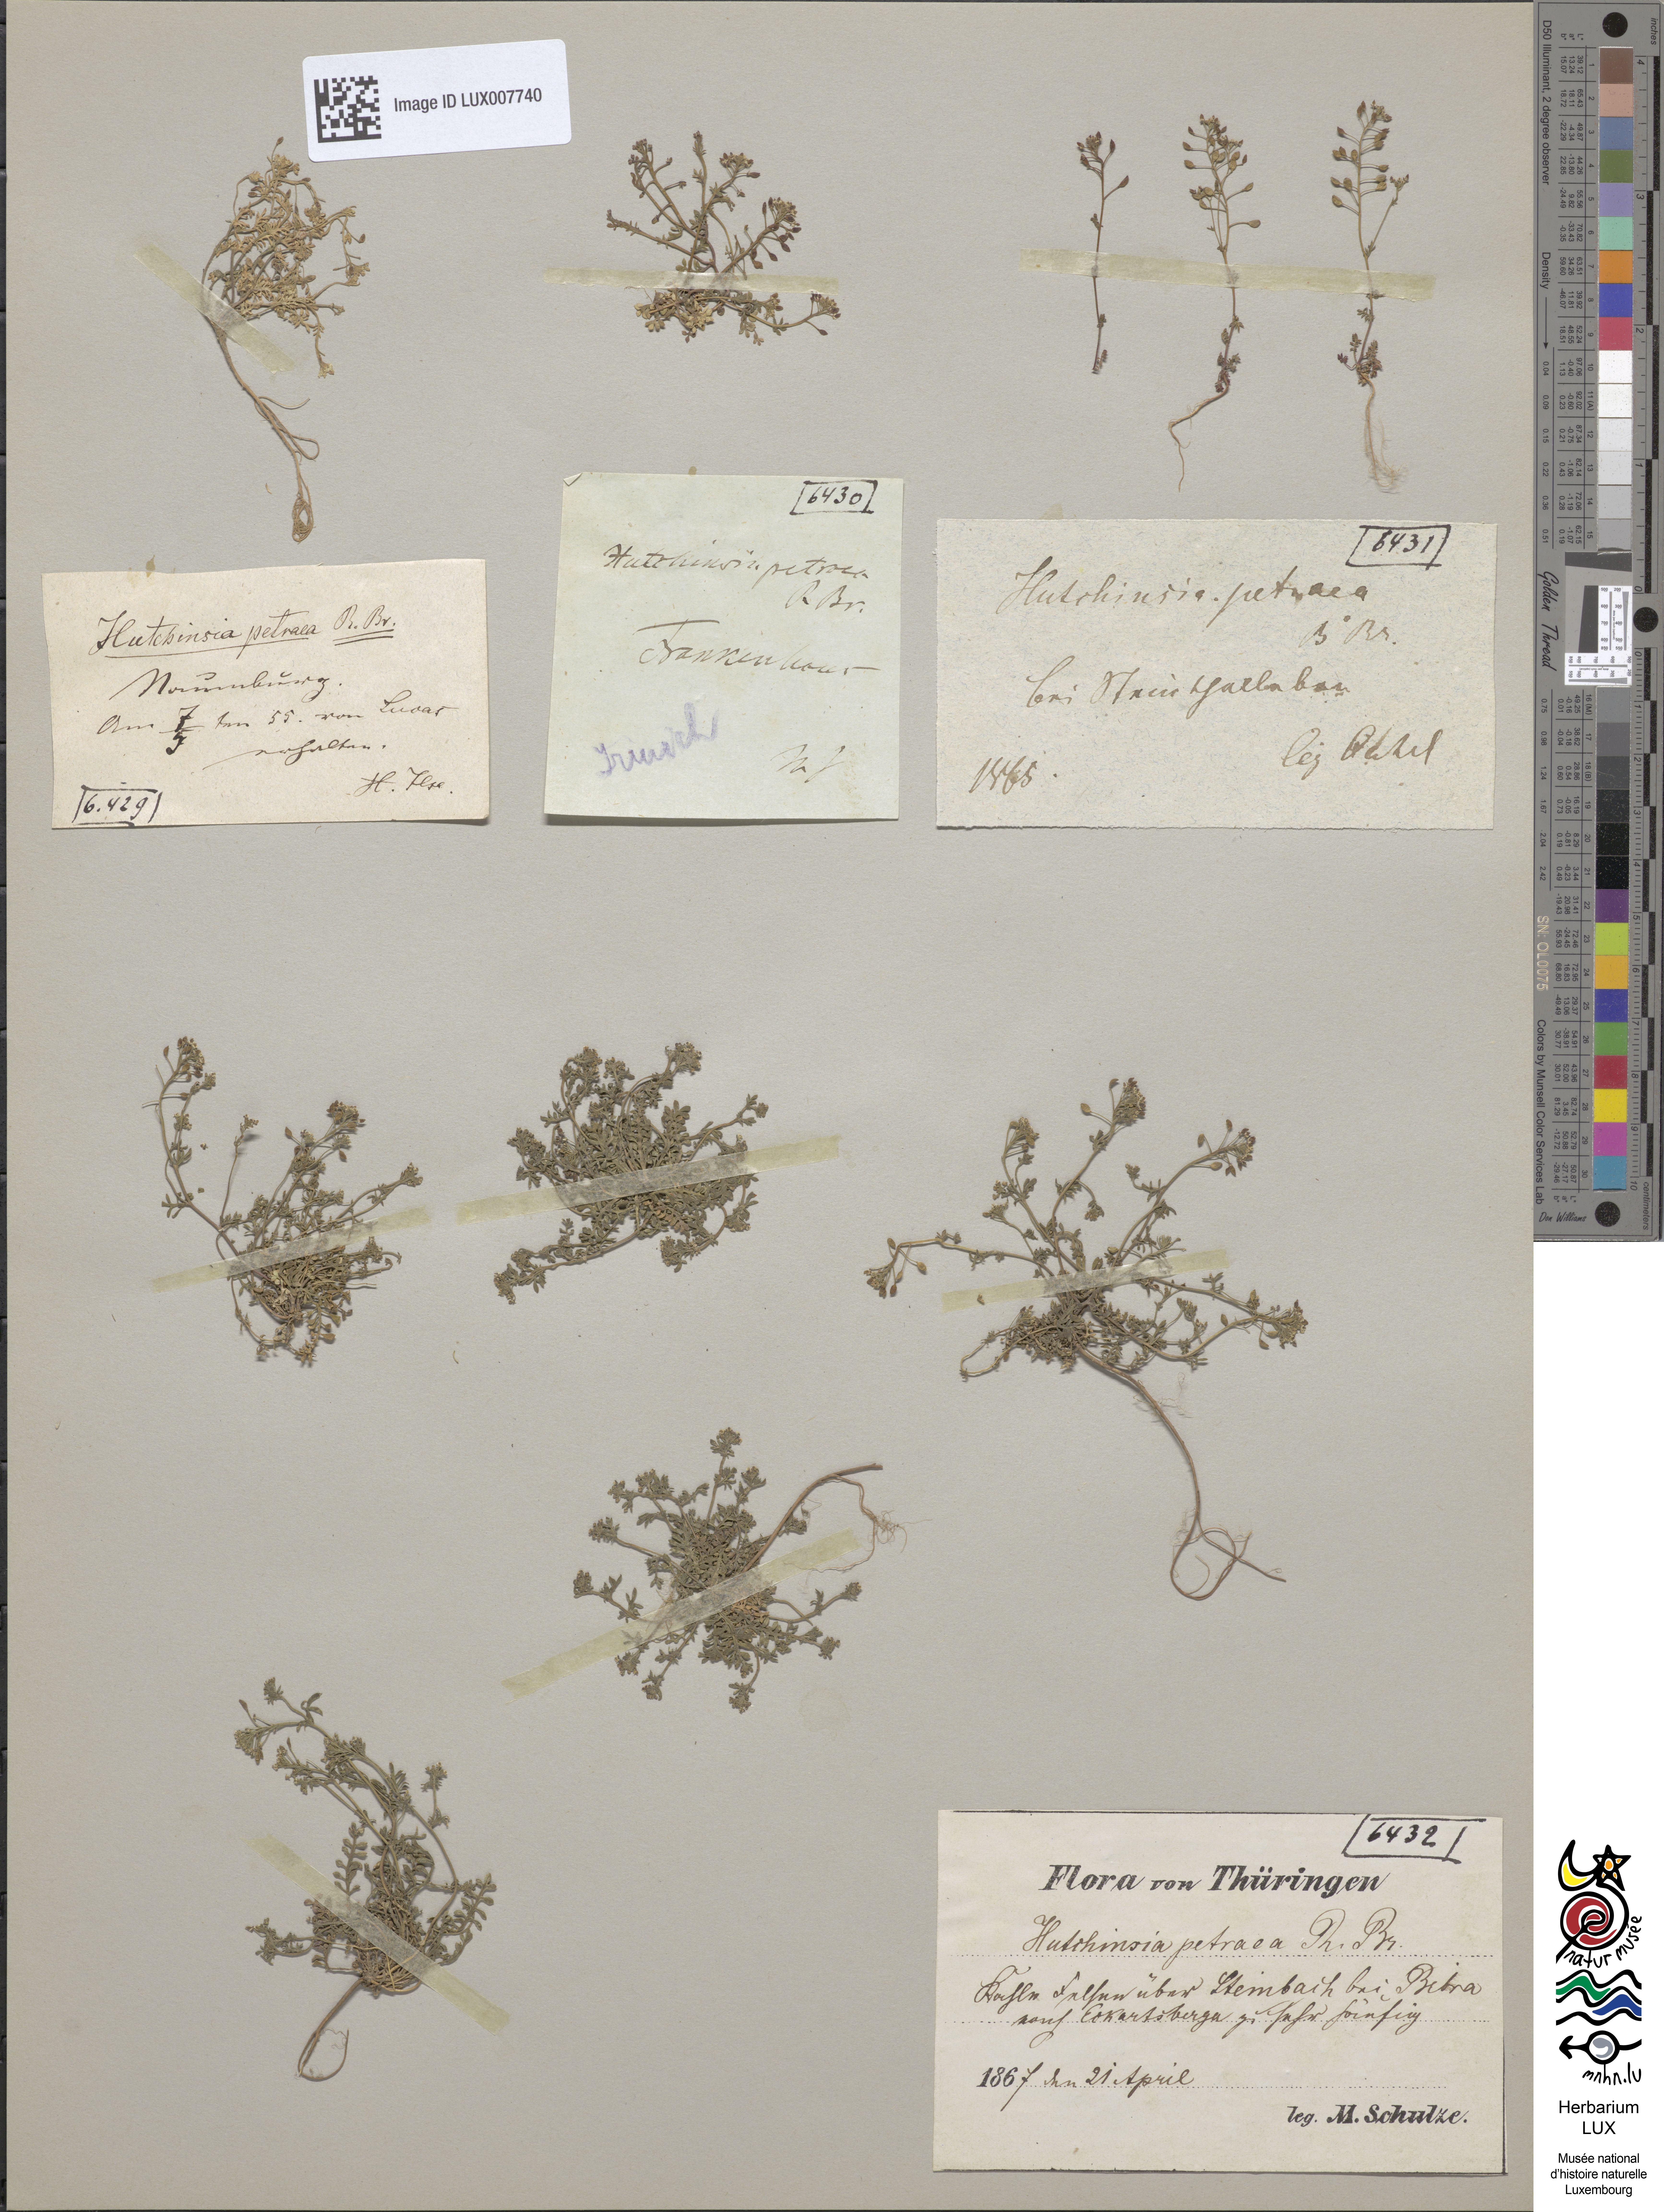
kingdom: Plantae
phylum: Tracheophyta
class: Magnoliopsida
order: Brassicales
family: Brassicaceae
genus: Hornungia
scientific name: Hornungia petraea
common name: Hutchinsia
